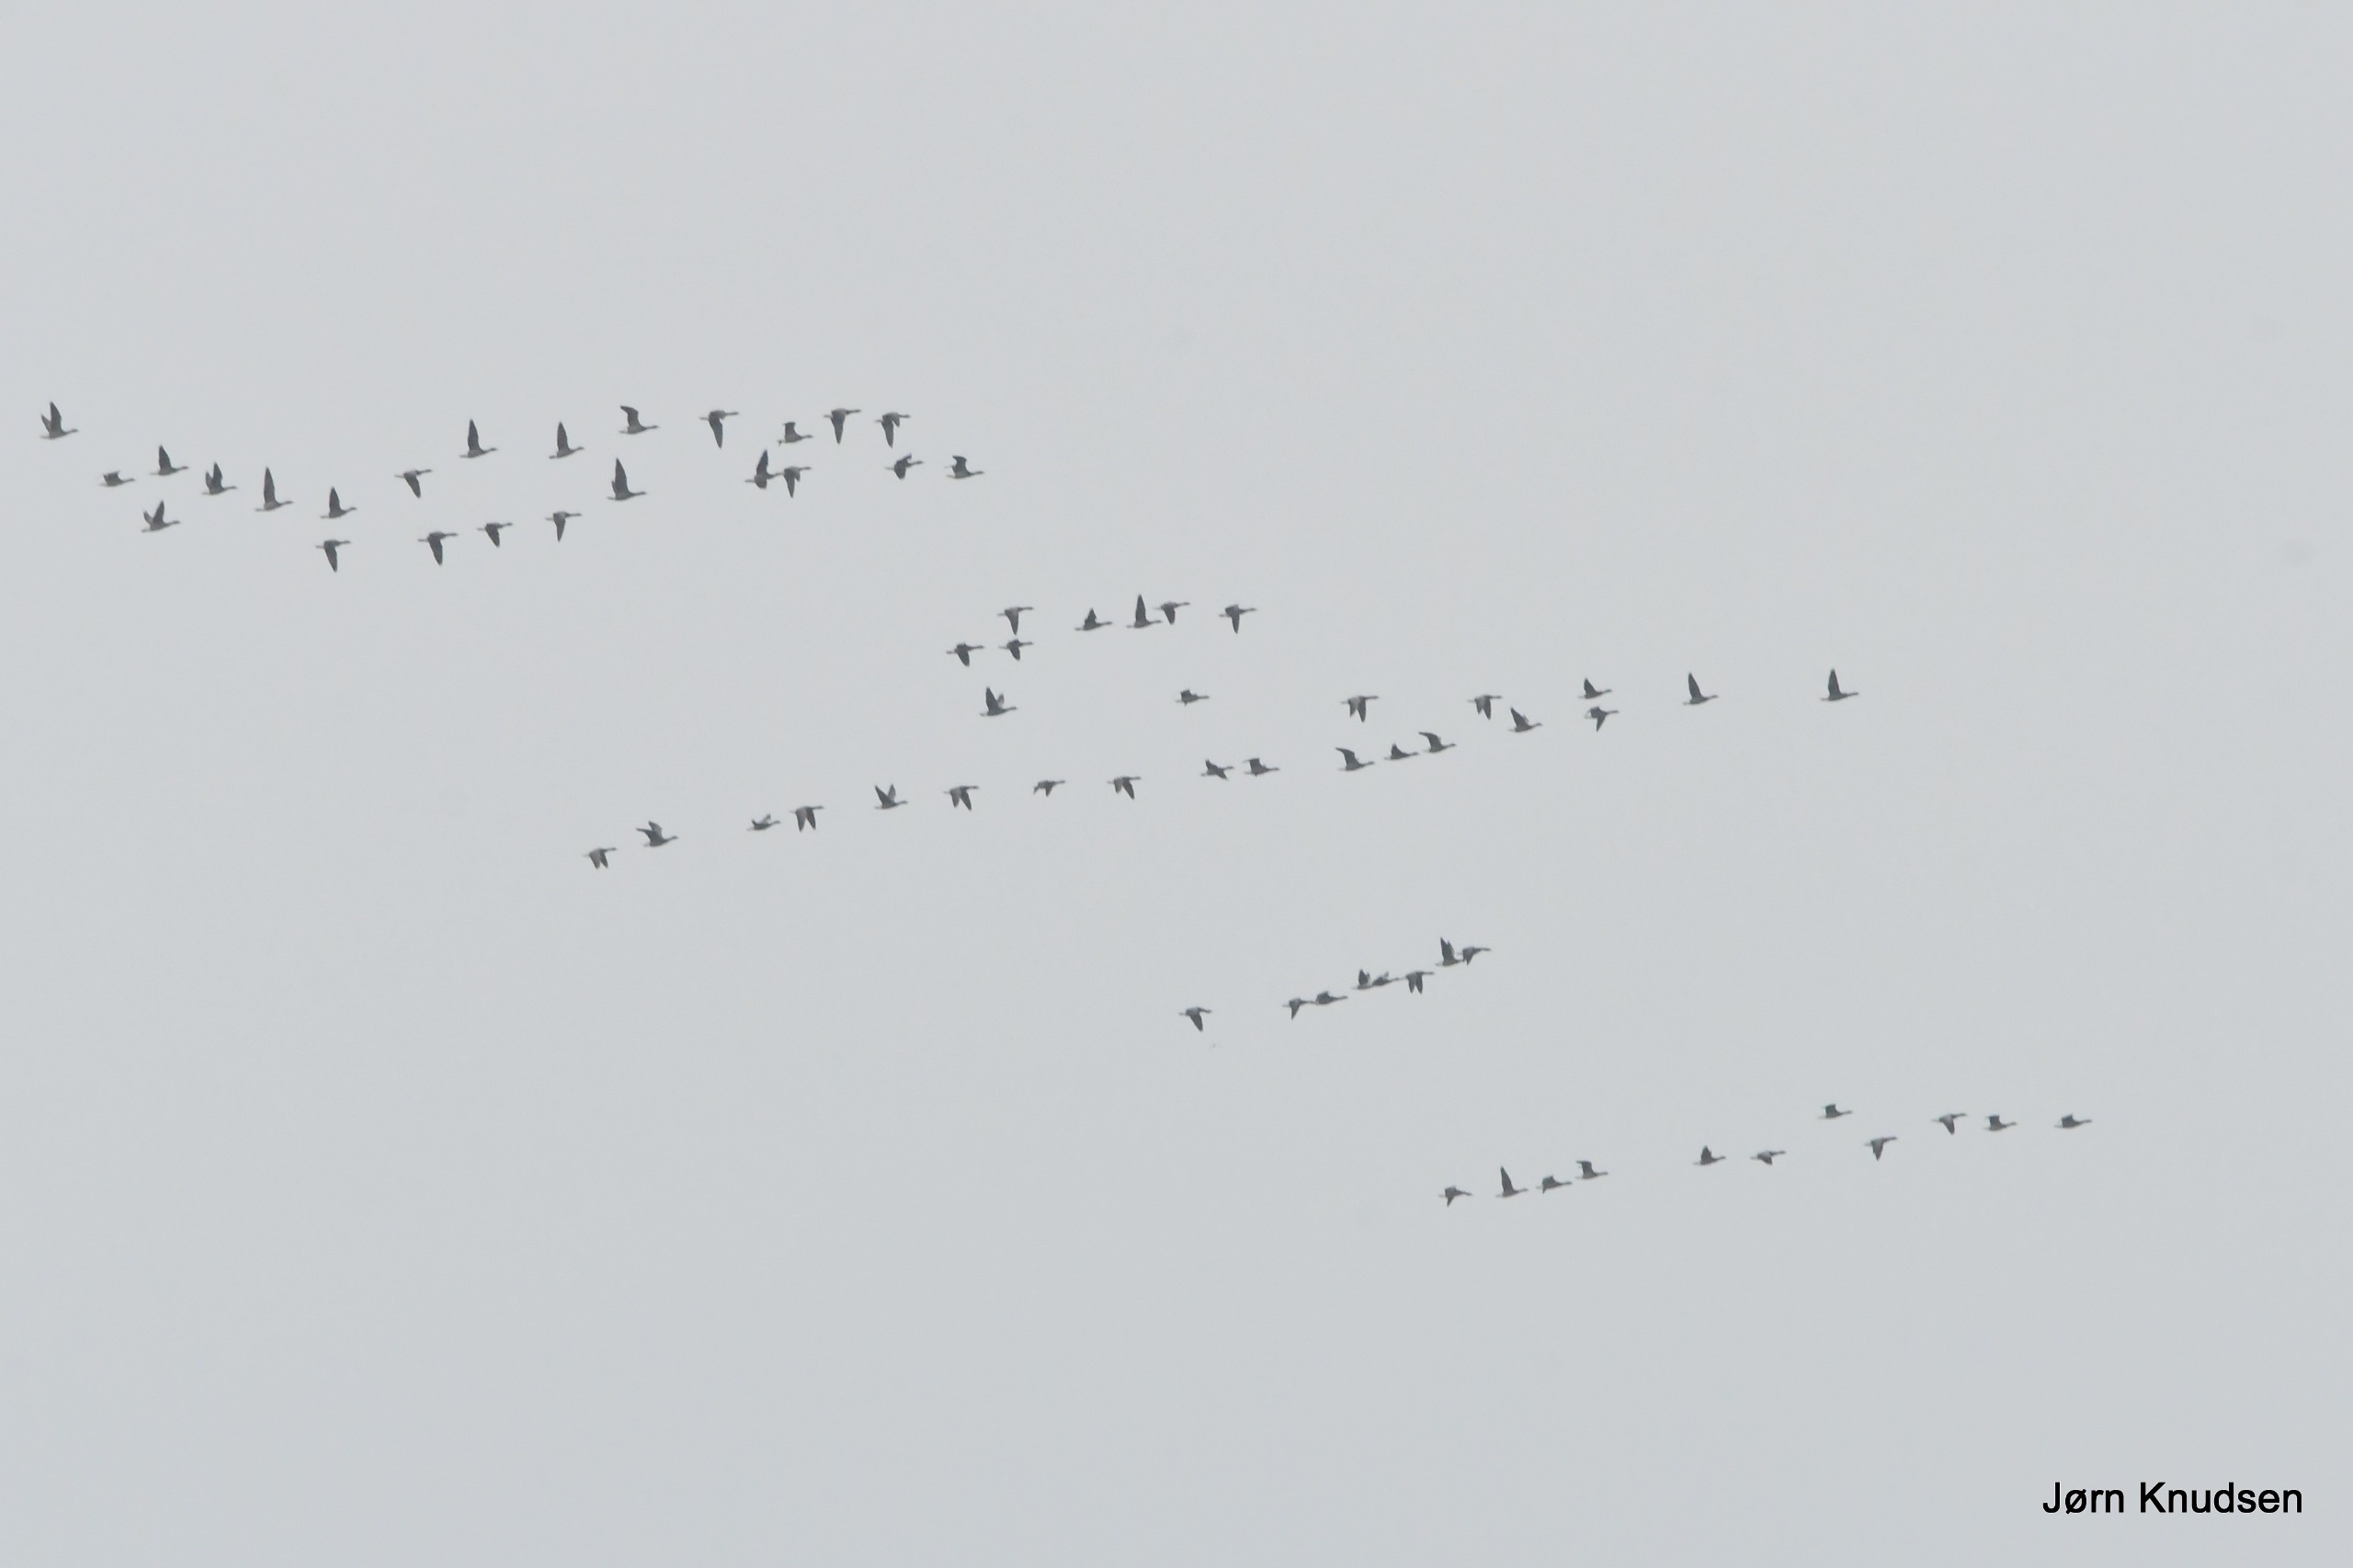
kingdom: Animalia
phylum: Chordata
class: Aves
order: Anseriformes
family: Anatidae
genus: Branta
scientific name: Branta leucopsis
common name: Bramgås
